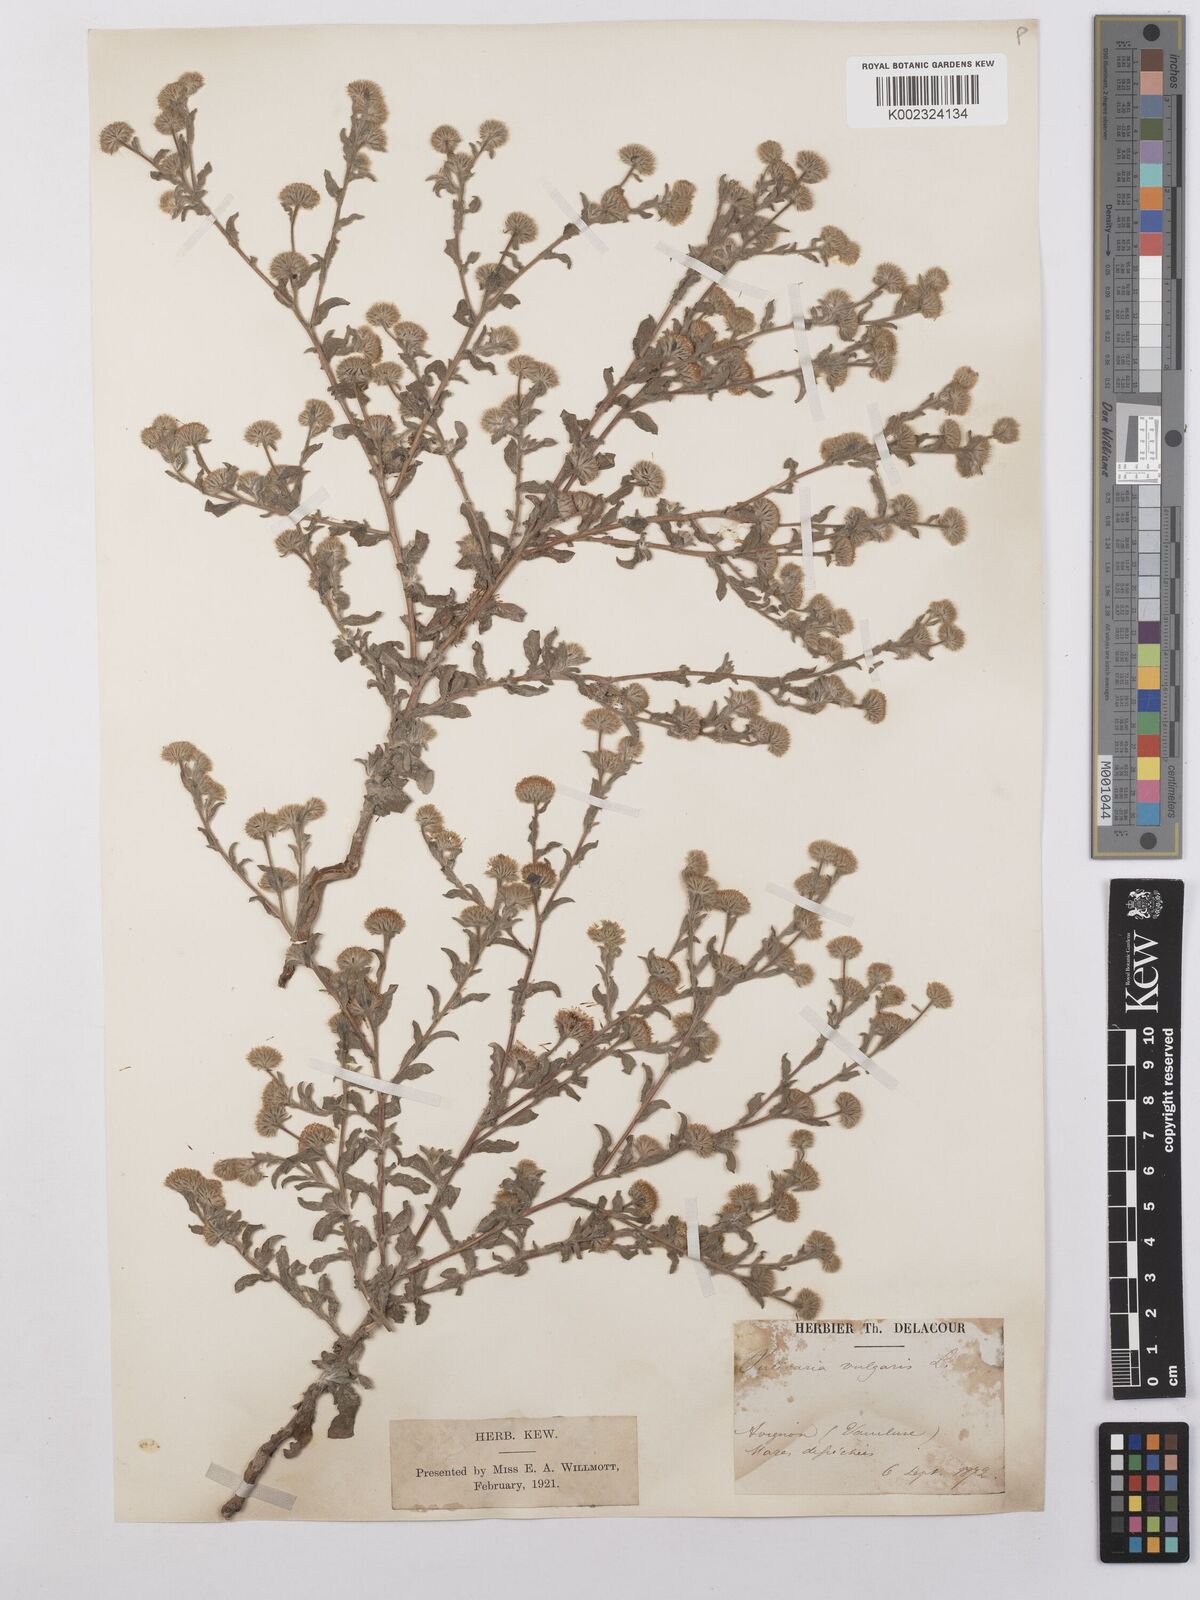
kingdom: Plantae
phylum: Tracheophyta
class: Magnoliopsida
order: Asterales
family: Asteraceae
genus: Pulicaria
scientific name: Pulicaria vulgaris
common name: Small fleabane
